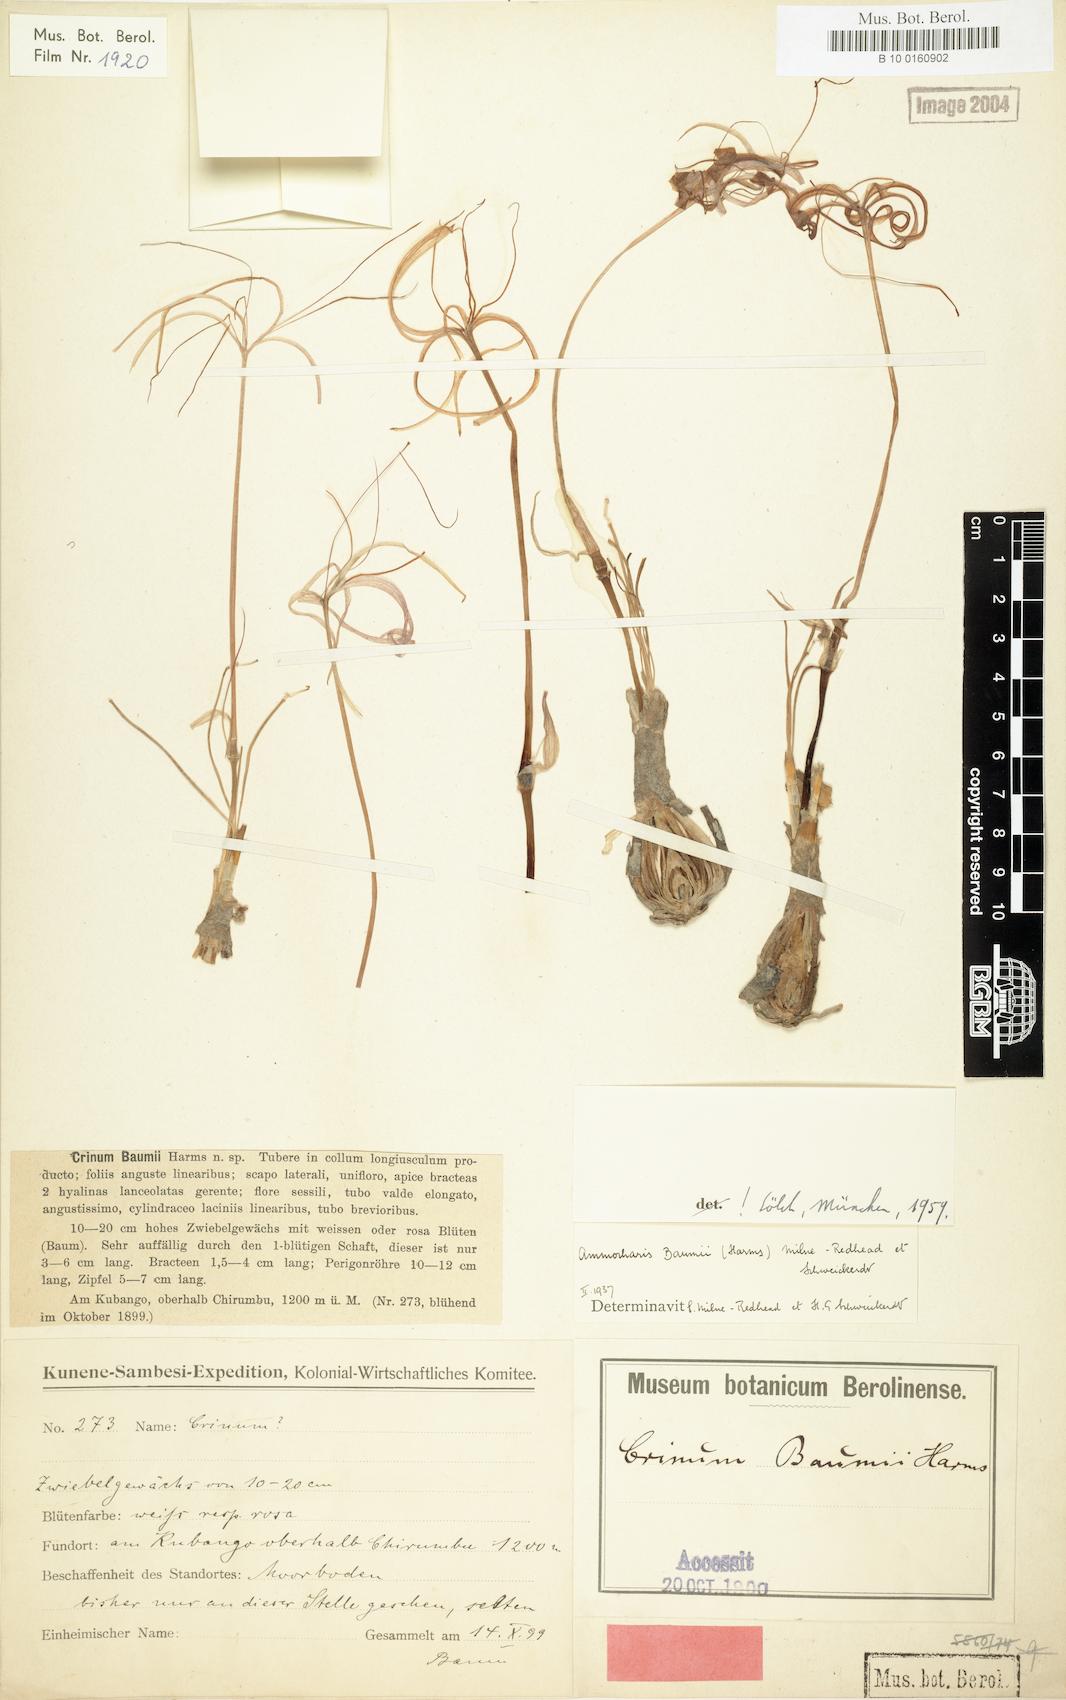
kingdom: Plantae
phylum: Tracheophyta
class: Liliopsida
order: Asparagales
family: Amaryllidaceae
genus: Ammocharis
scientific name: Ammocharis baumii
